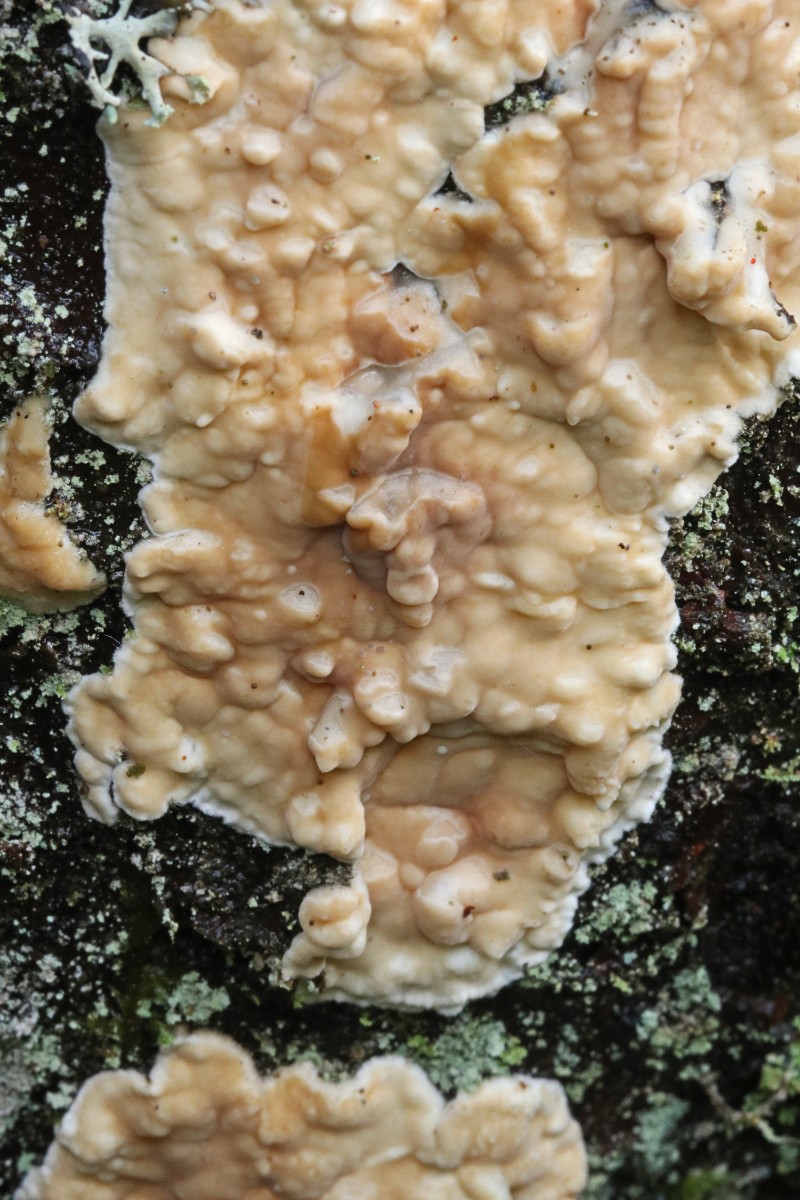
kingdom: Fungi
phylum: Basidiomycota
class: Agaricomycetes
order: Polyporales
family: Irpicaceae
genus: Meruliopsis
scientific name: Meruliopsis taxicola
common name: purpurbrun foldporesvamp
